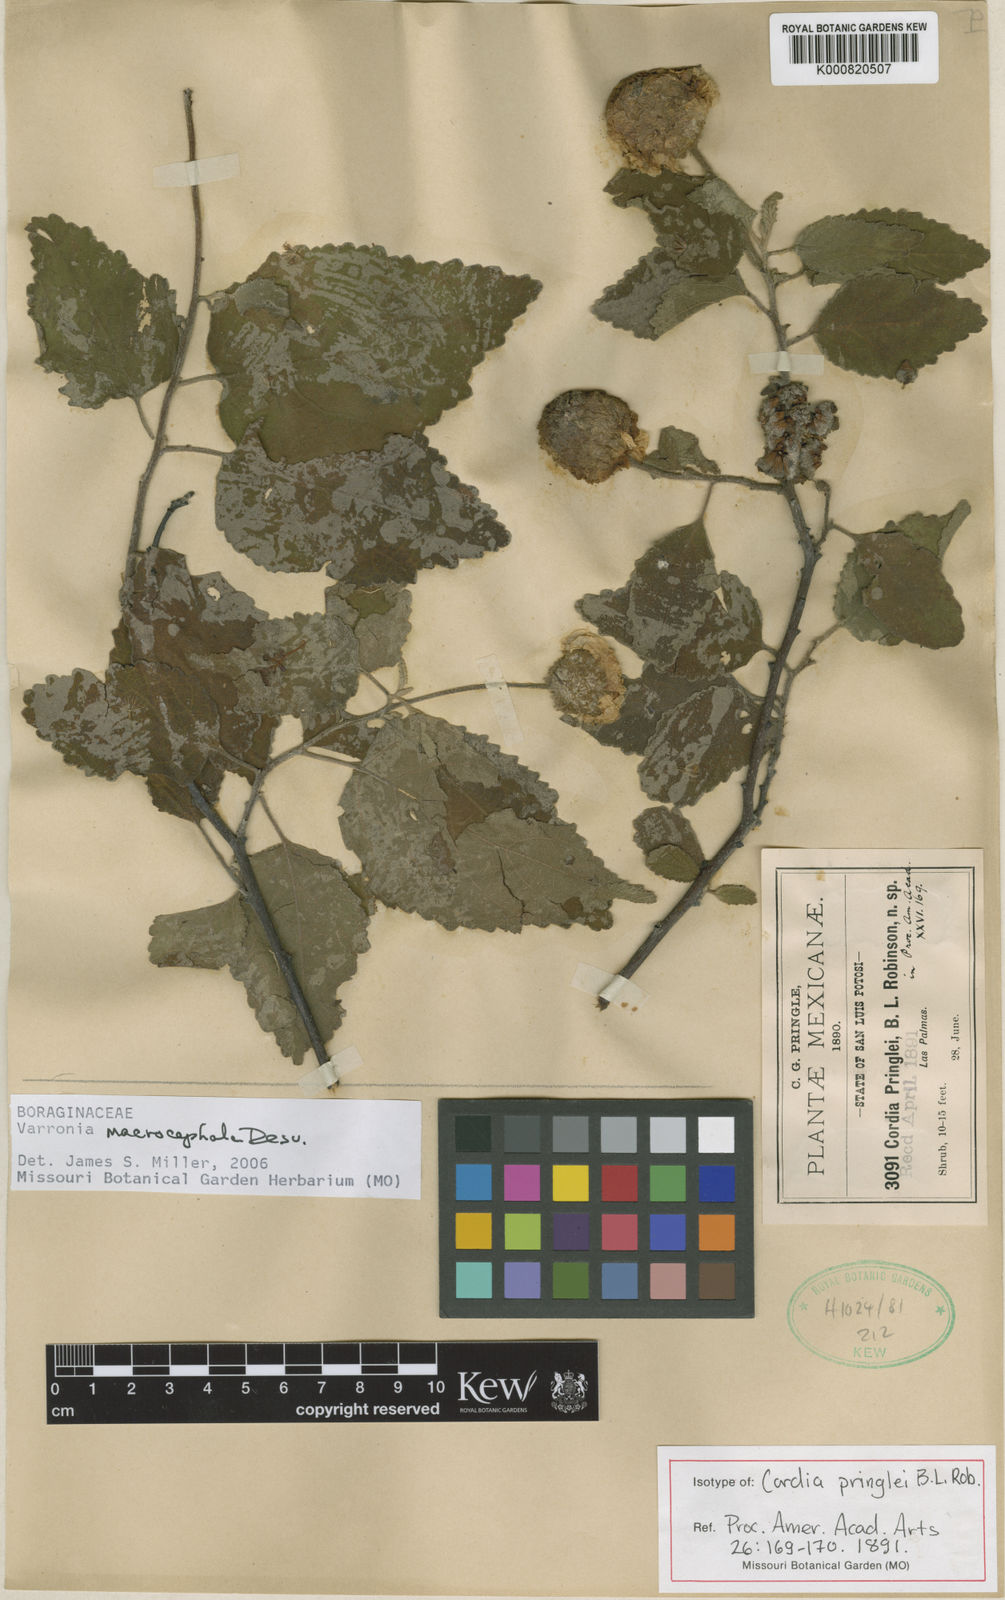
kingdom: Plantae
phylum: Tracheophyta
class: Magnoliopsida
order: Boraginales
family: Cordiaceae
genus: Varronia
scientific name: Varronia macrocephala
